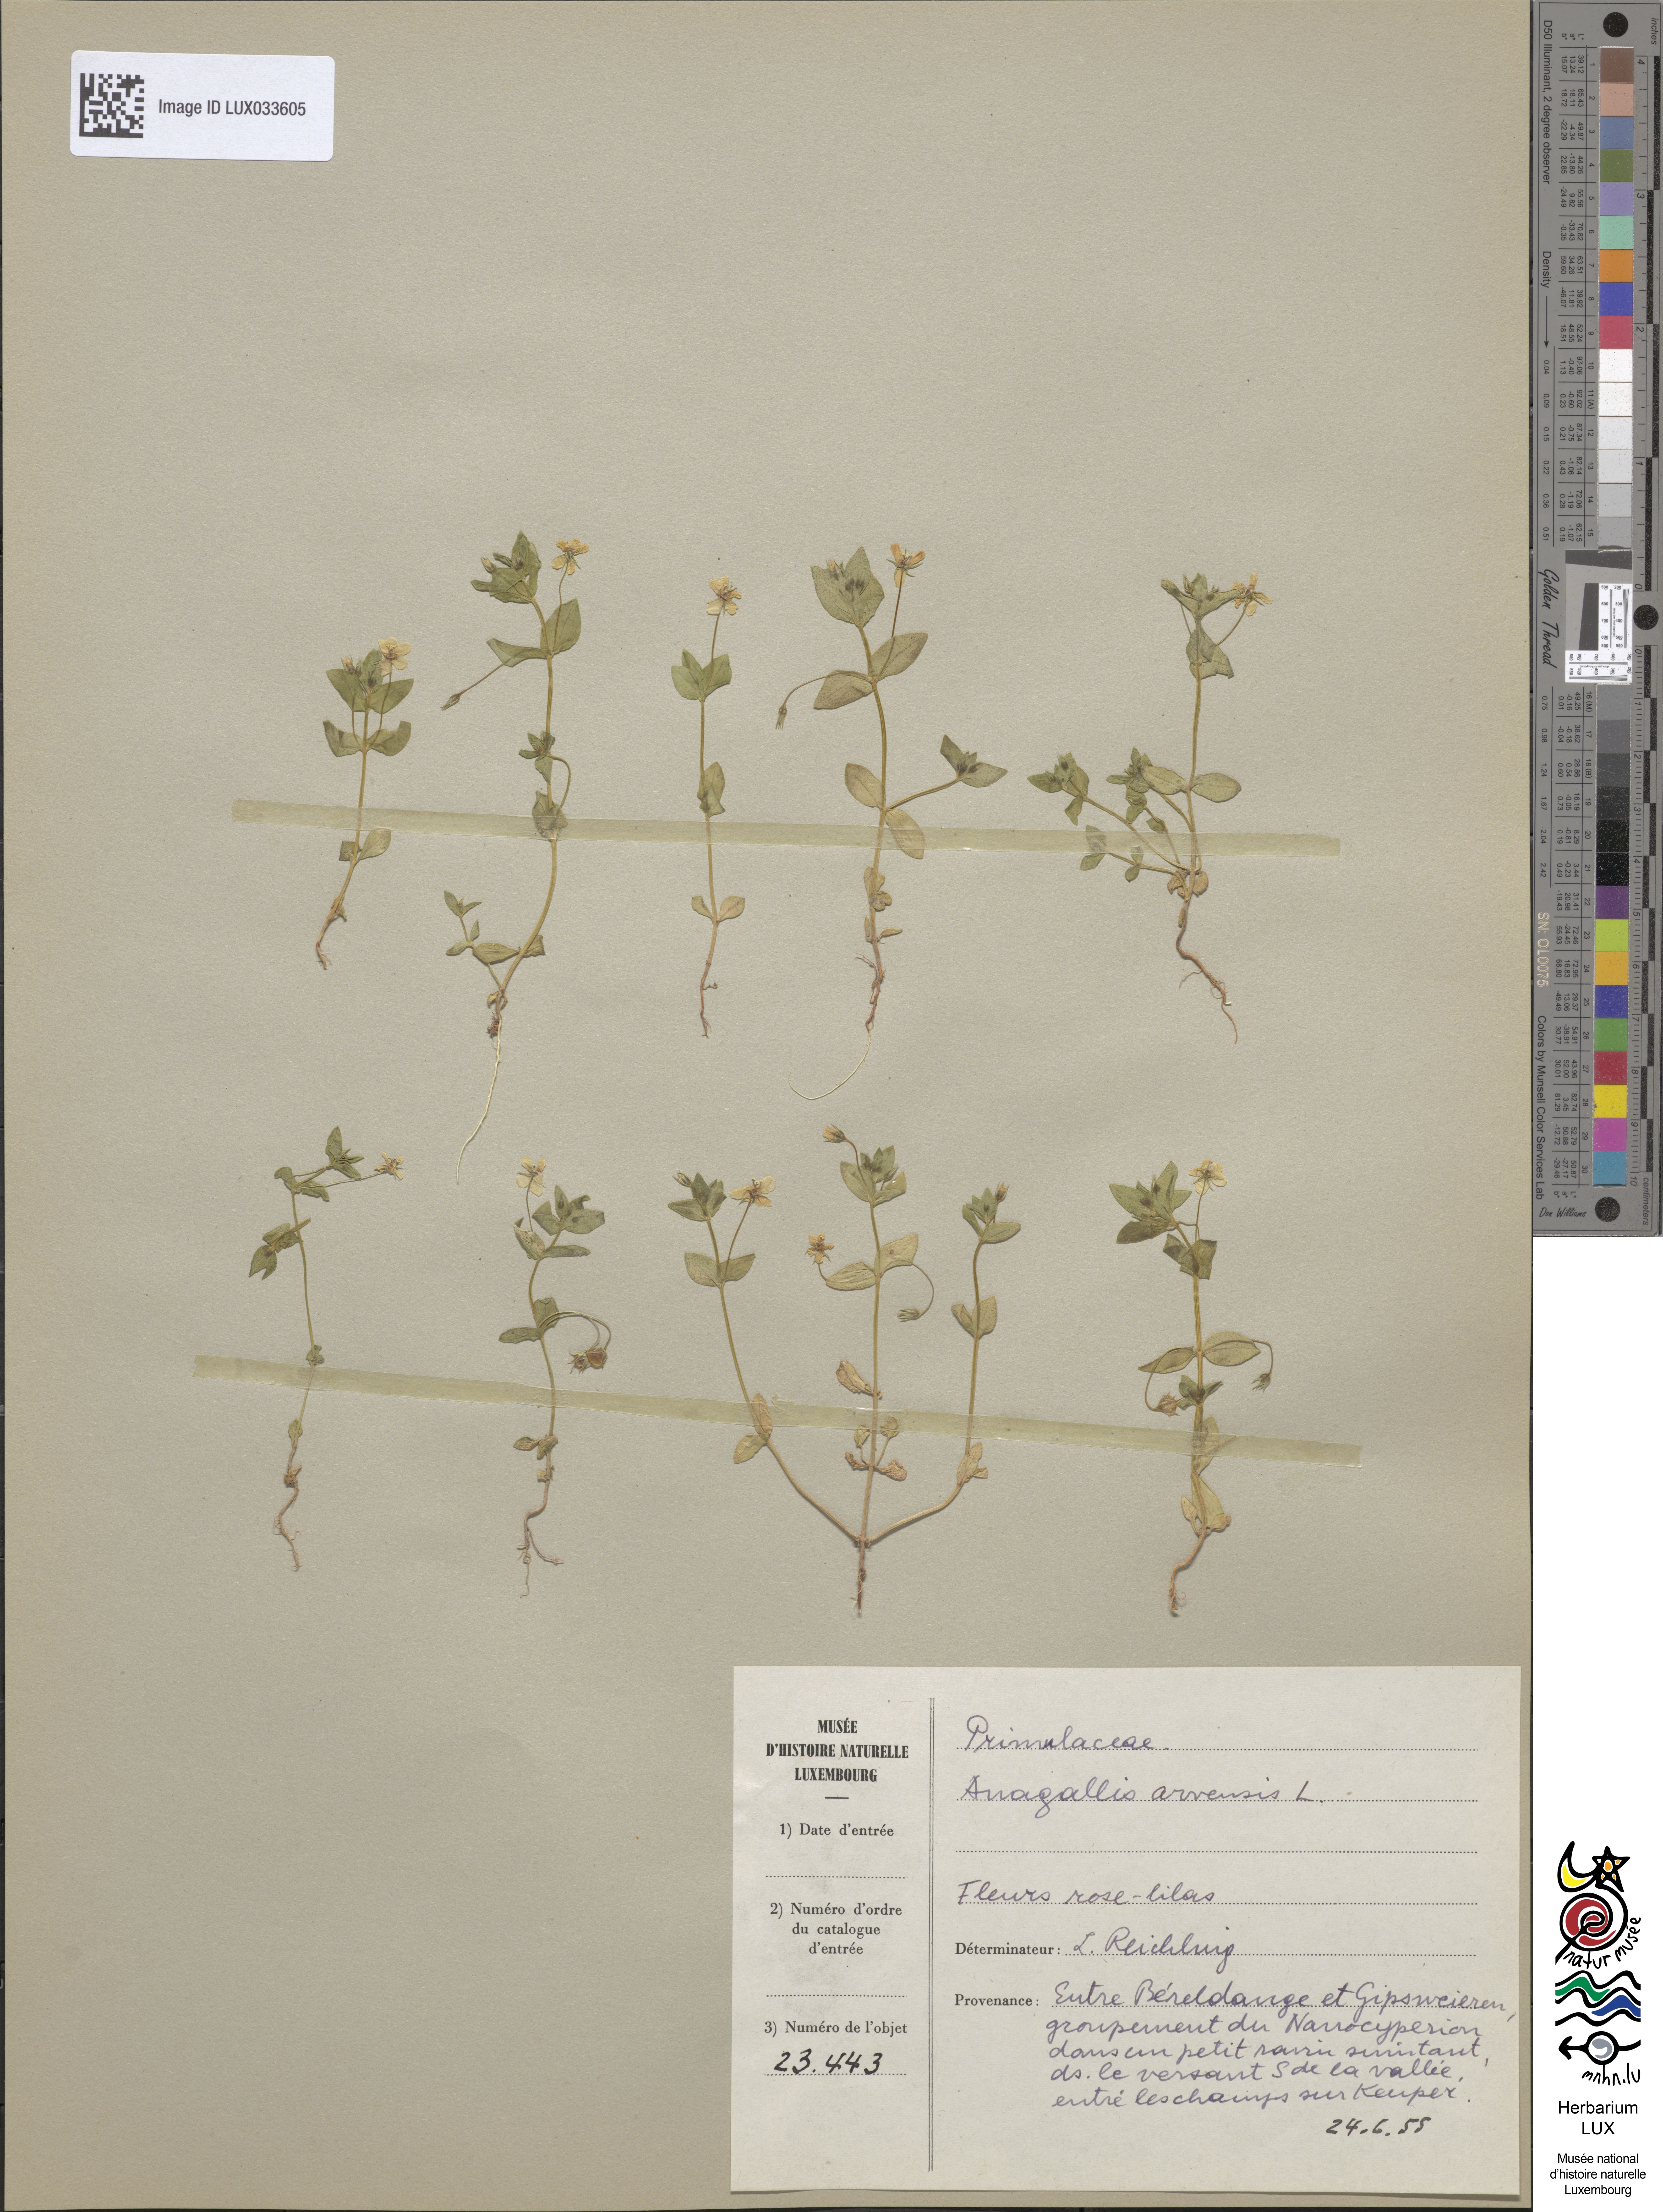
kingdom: Plantae
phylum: Tracheophyta
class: Magnoliopsida
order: Ericales
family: Primulaceae
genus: Lysimachia
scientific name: Lysimachia arvensis
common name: Scarlet pimpernel
